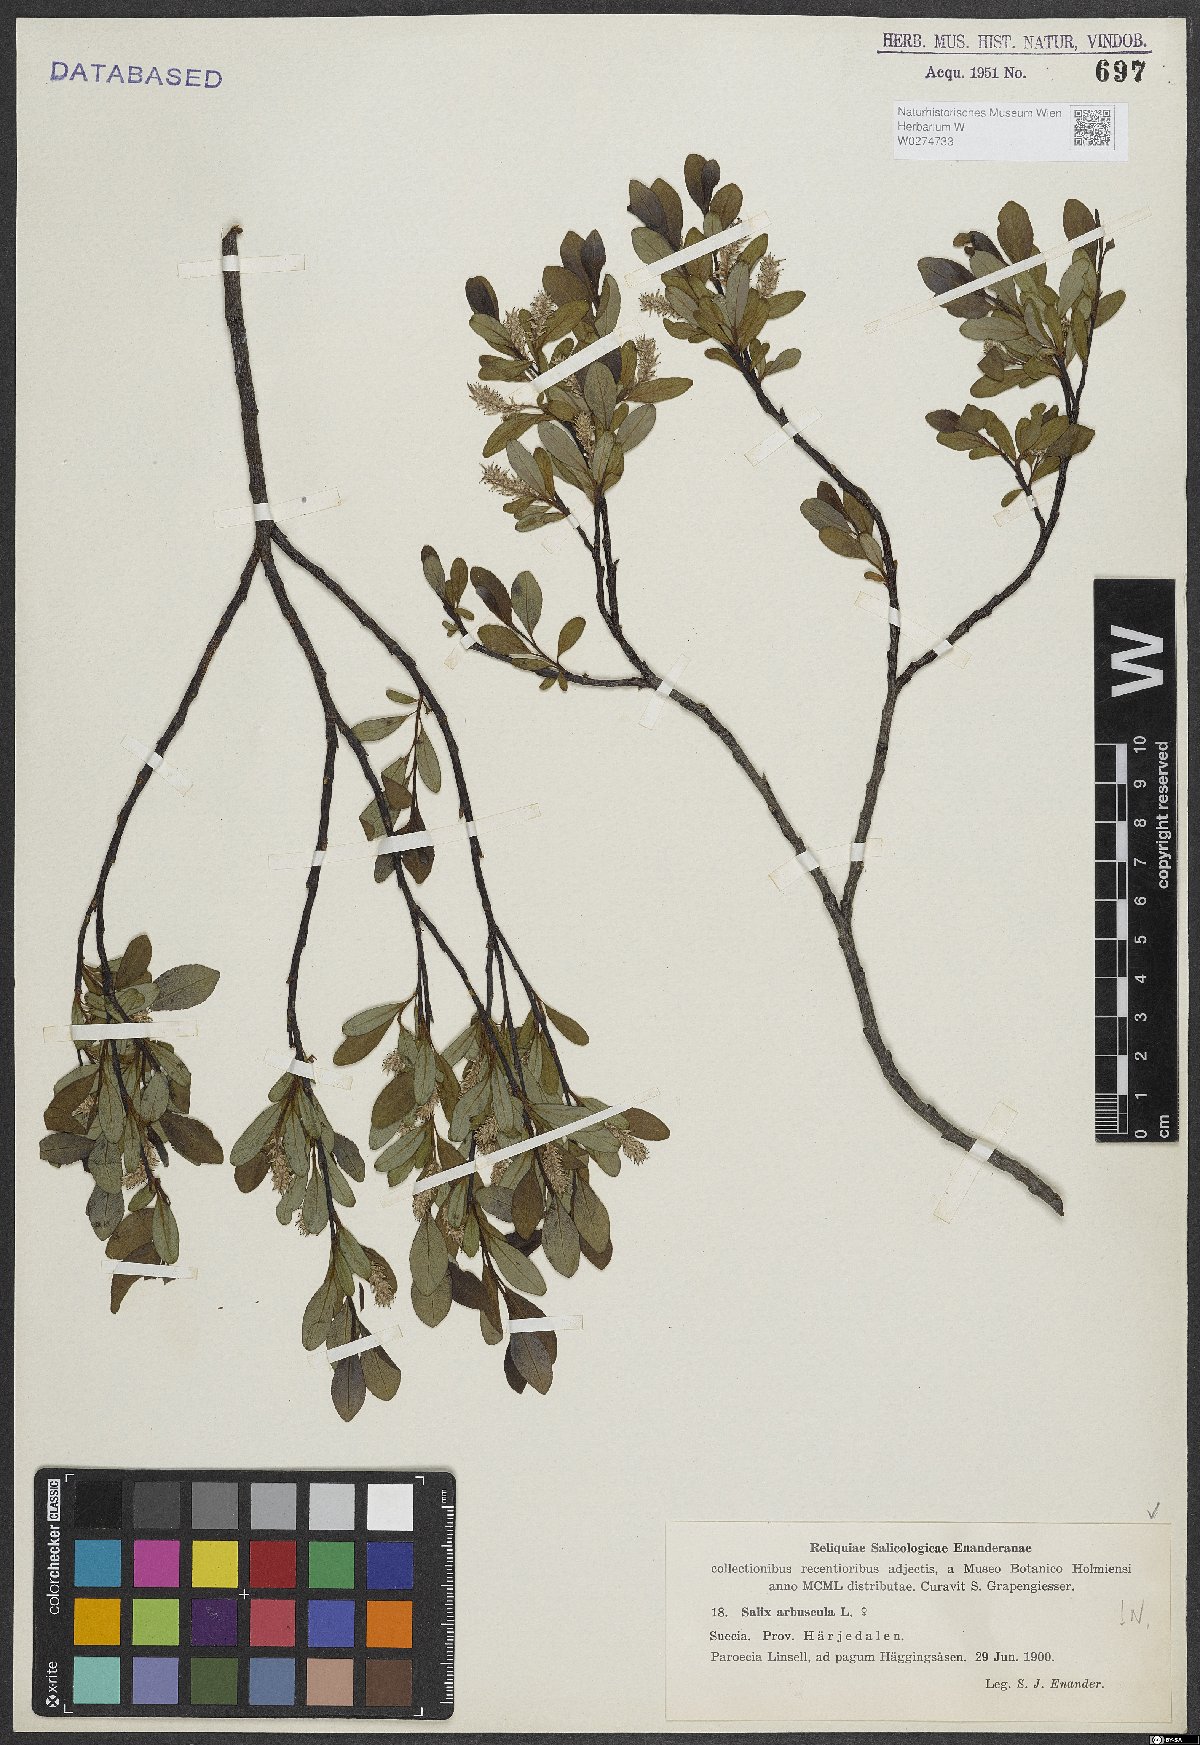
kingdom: Plantae
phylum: Tracheophyta
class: Magnoliopsida
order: Malpighiales
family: Salicaceae
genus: Salix
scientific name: Salix arbuscula
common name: Mountain willow
